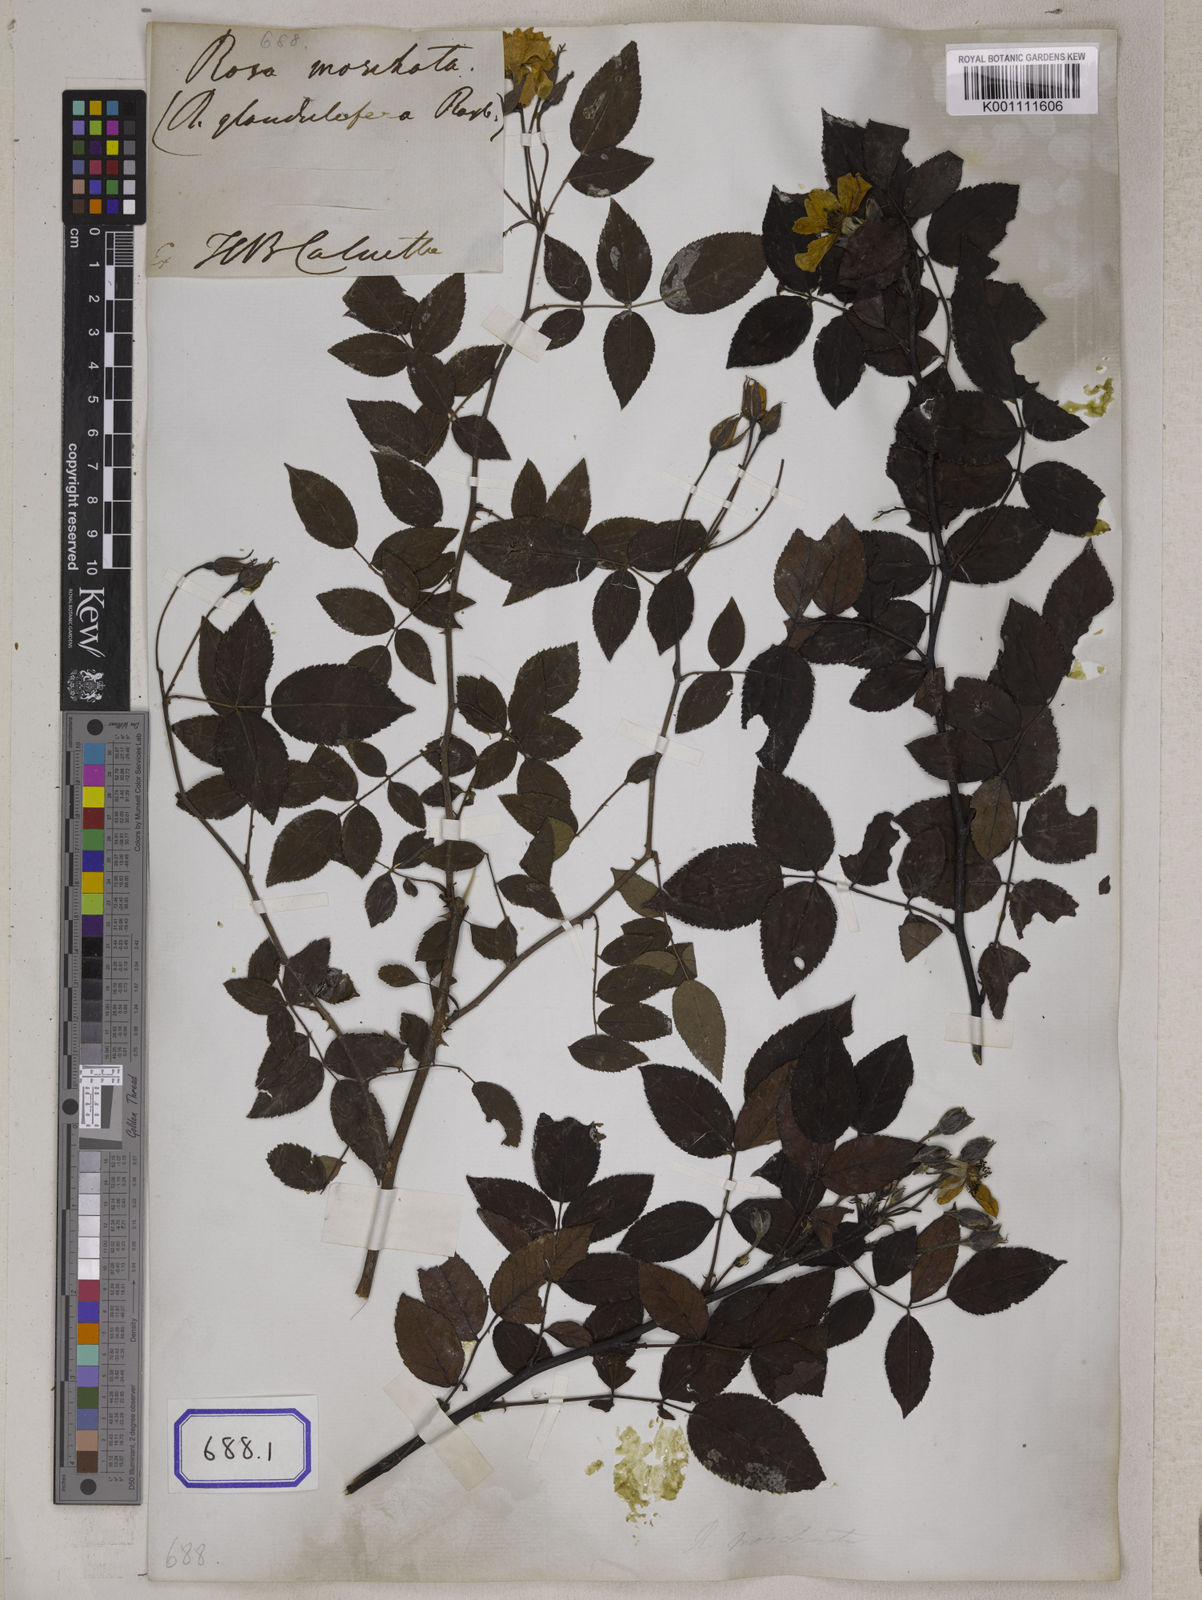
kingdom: Plantae
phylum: Tracheophyta
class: Magnoliopsida
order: Rosales
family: Rosaceae
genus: Rosa
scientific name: Rosa
